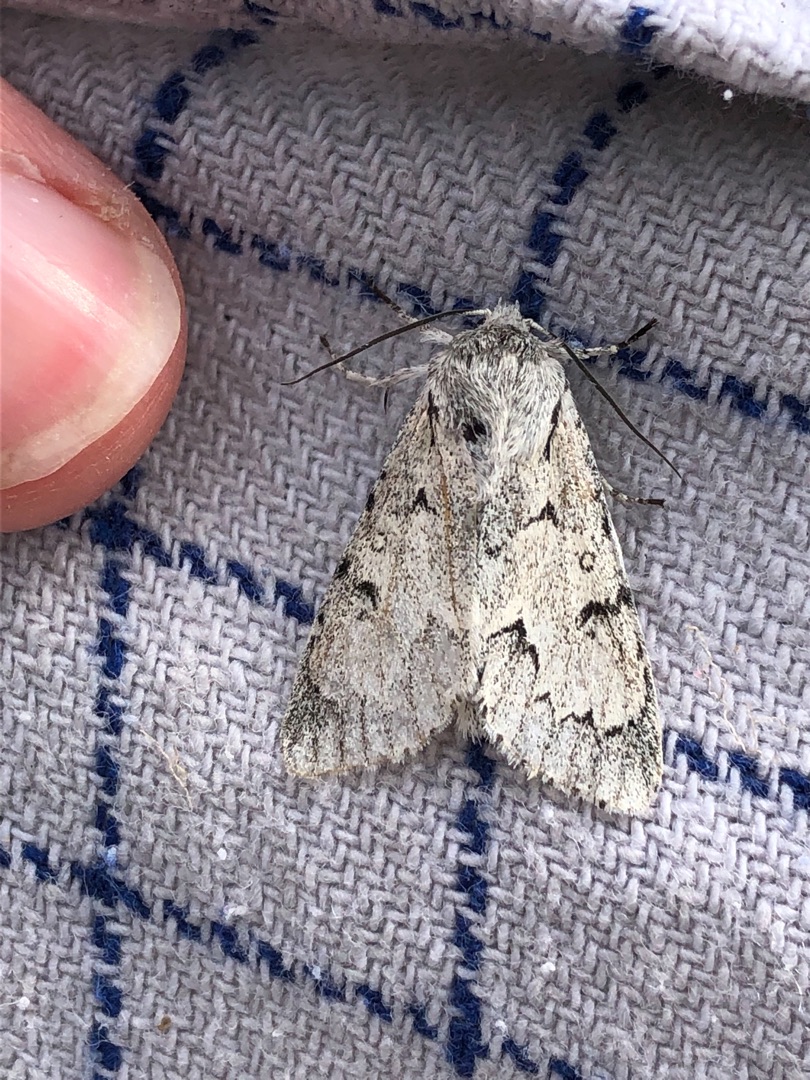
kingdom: Animalia
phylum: Arthropoda
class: Insecta
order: Lepidoptera
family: Noctuidae
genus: Acronicta
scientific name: Acronicta leporina
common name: Snehare
